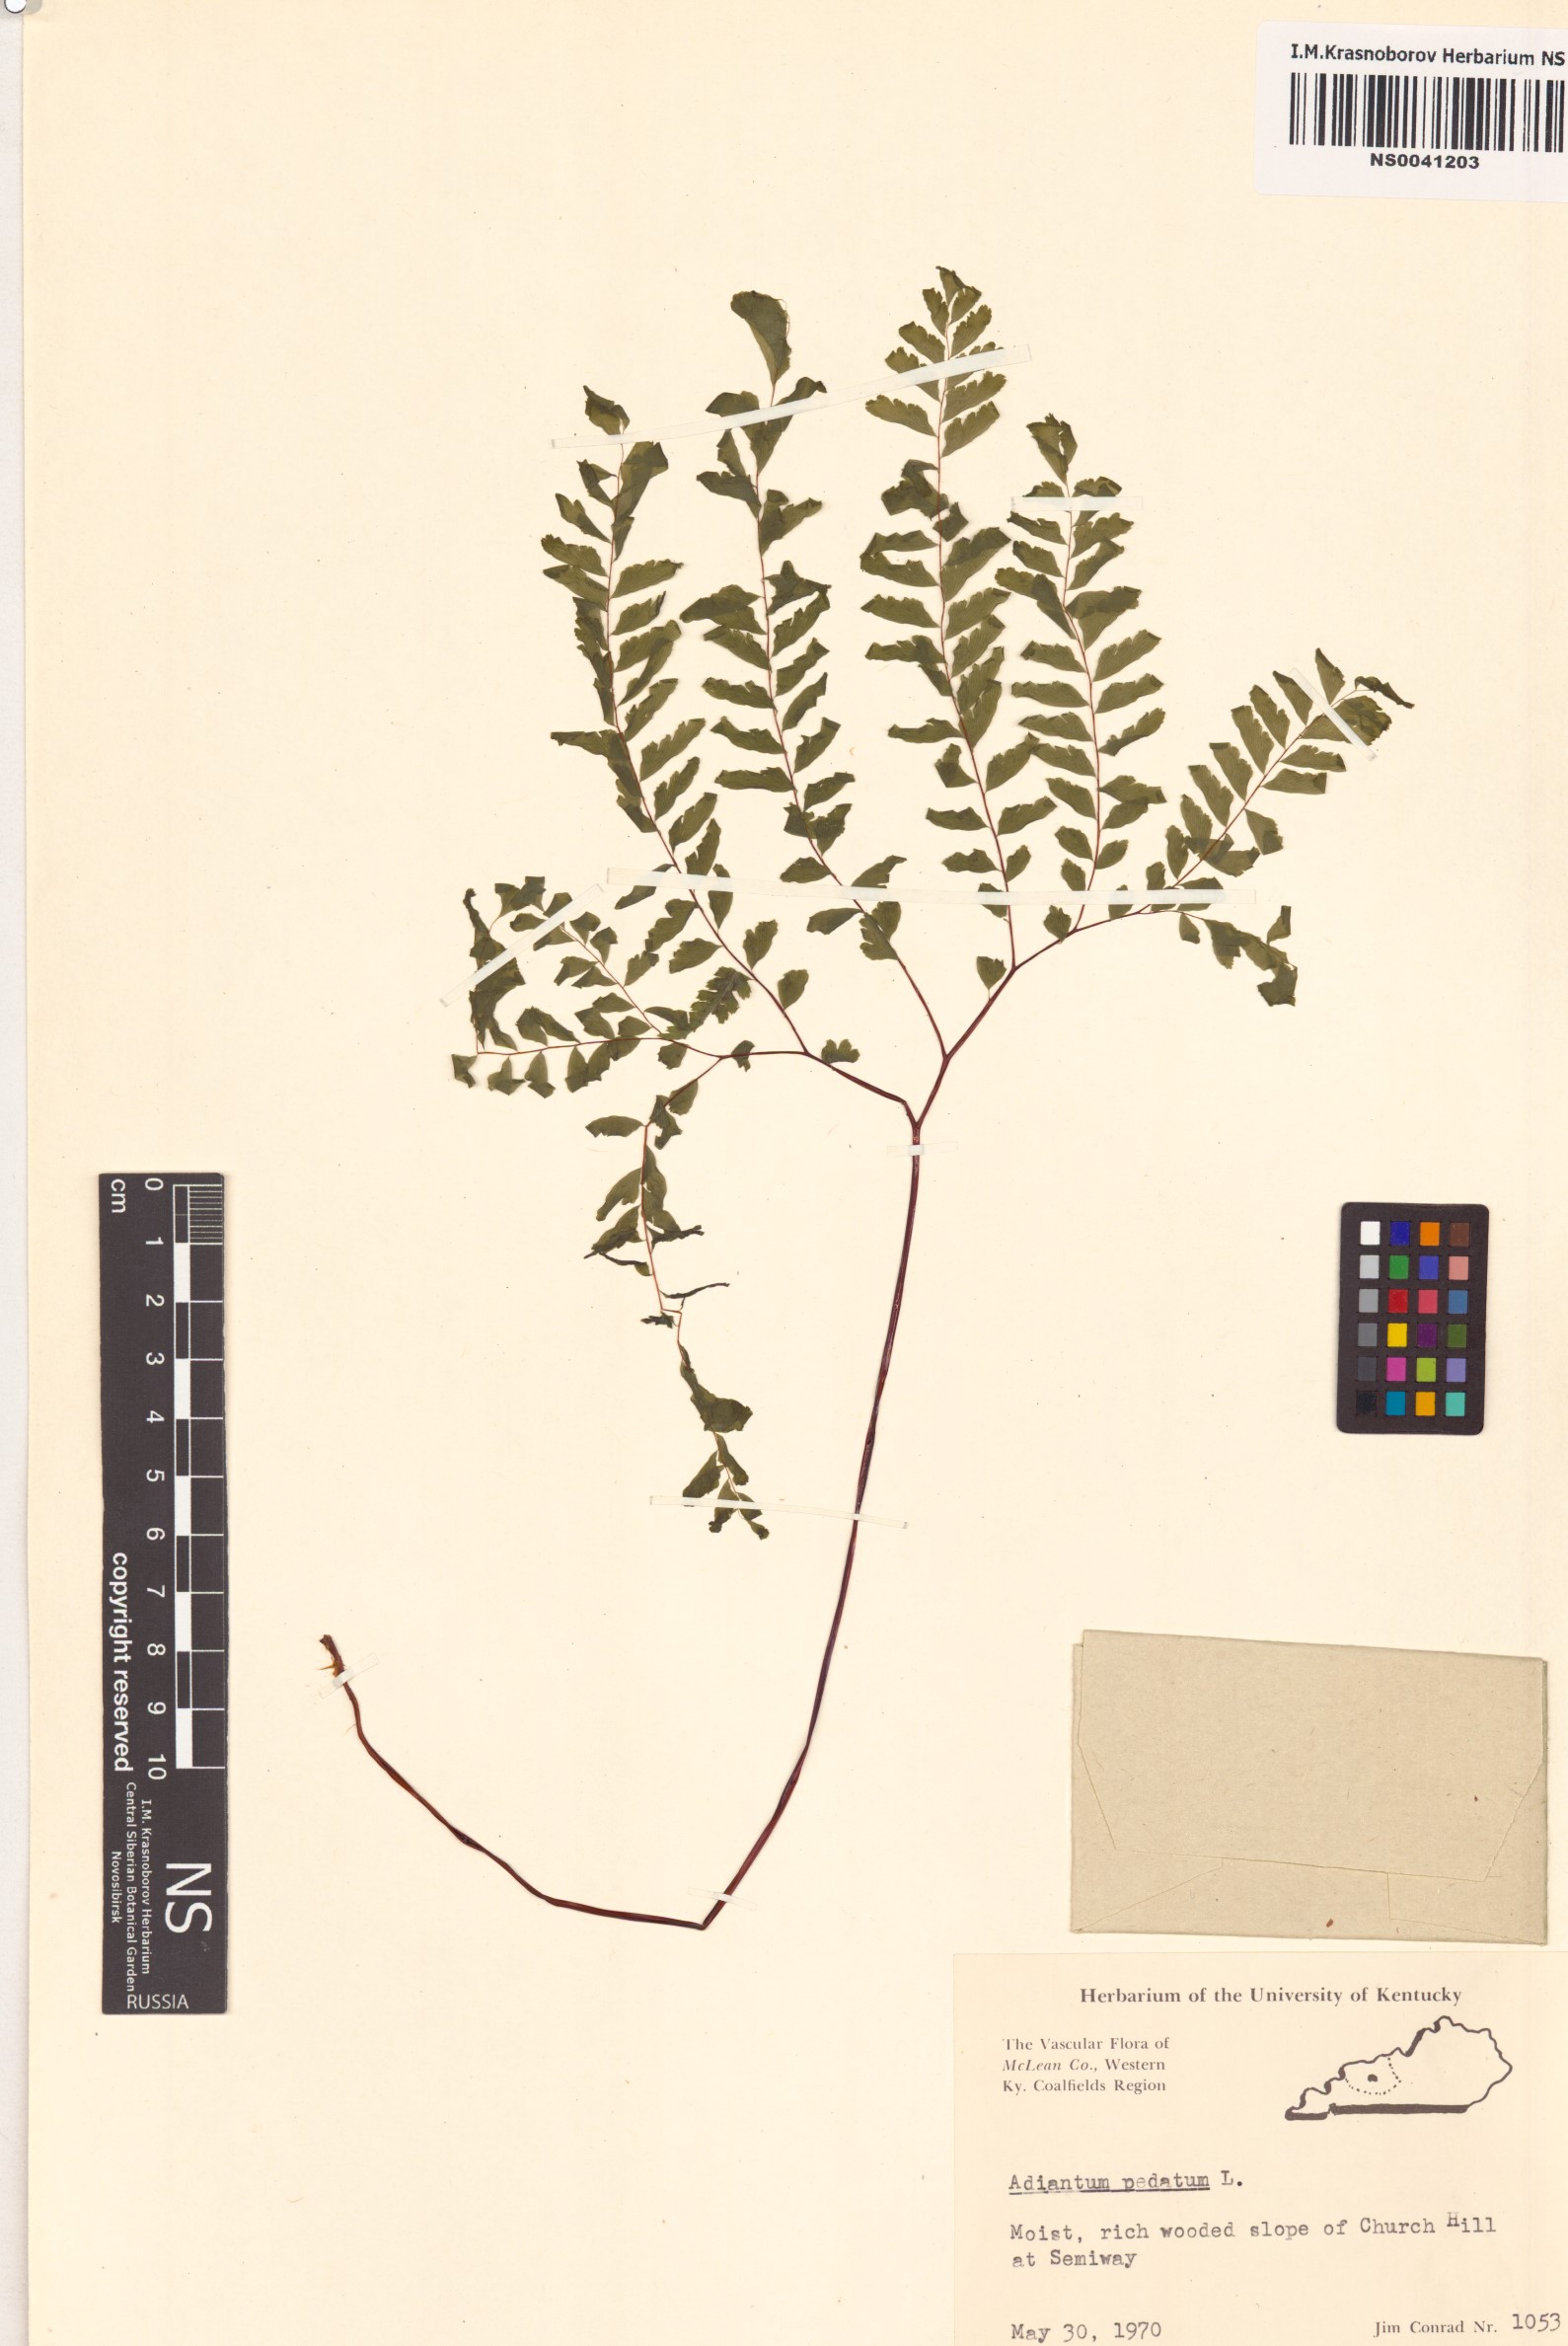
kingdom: Plantae
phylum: Tracheophyta
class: Polypodiopsida
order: Polypodiales
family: Pteridaceae
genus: Adiantum
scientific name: Adiantum pedatum
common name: Five-finger fern
